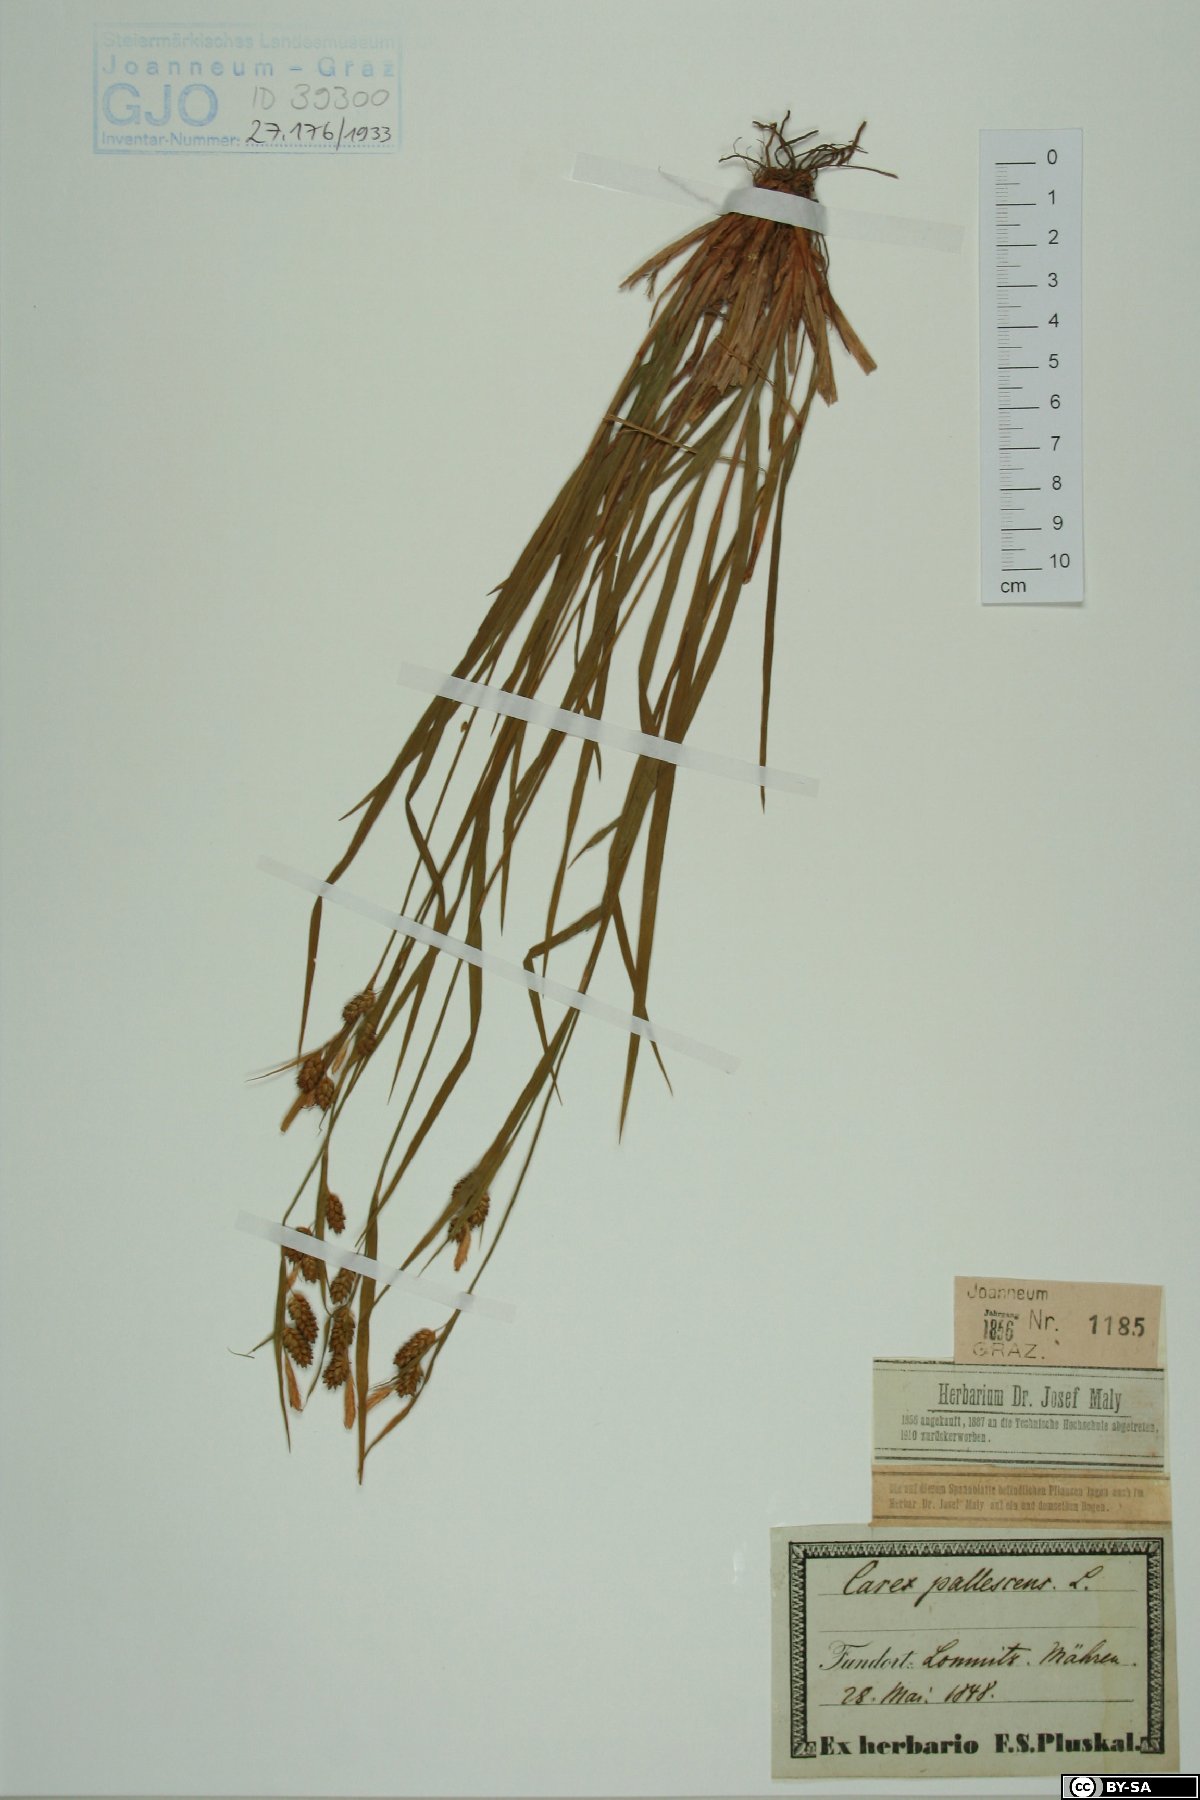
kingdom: Plantae
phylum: Tracheophyta
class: Liliopsida
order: Poales
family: Cyperaceae
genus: Carex
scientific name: Carex pallescens
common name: Pale sedge
